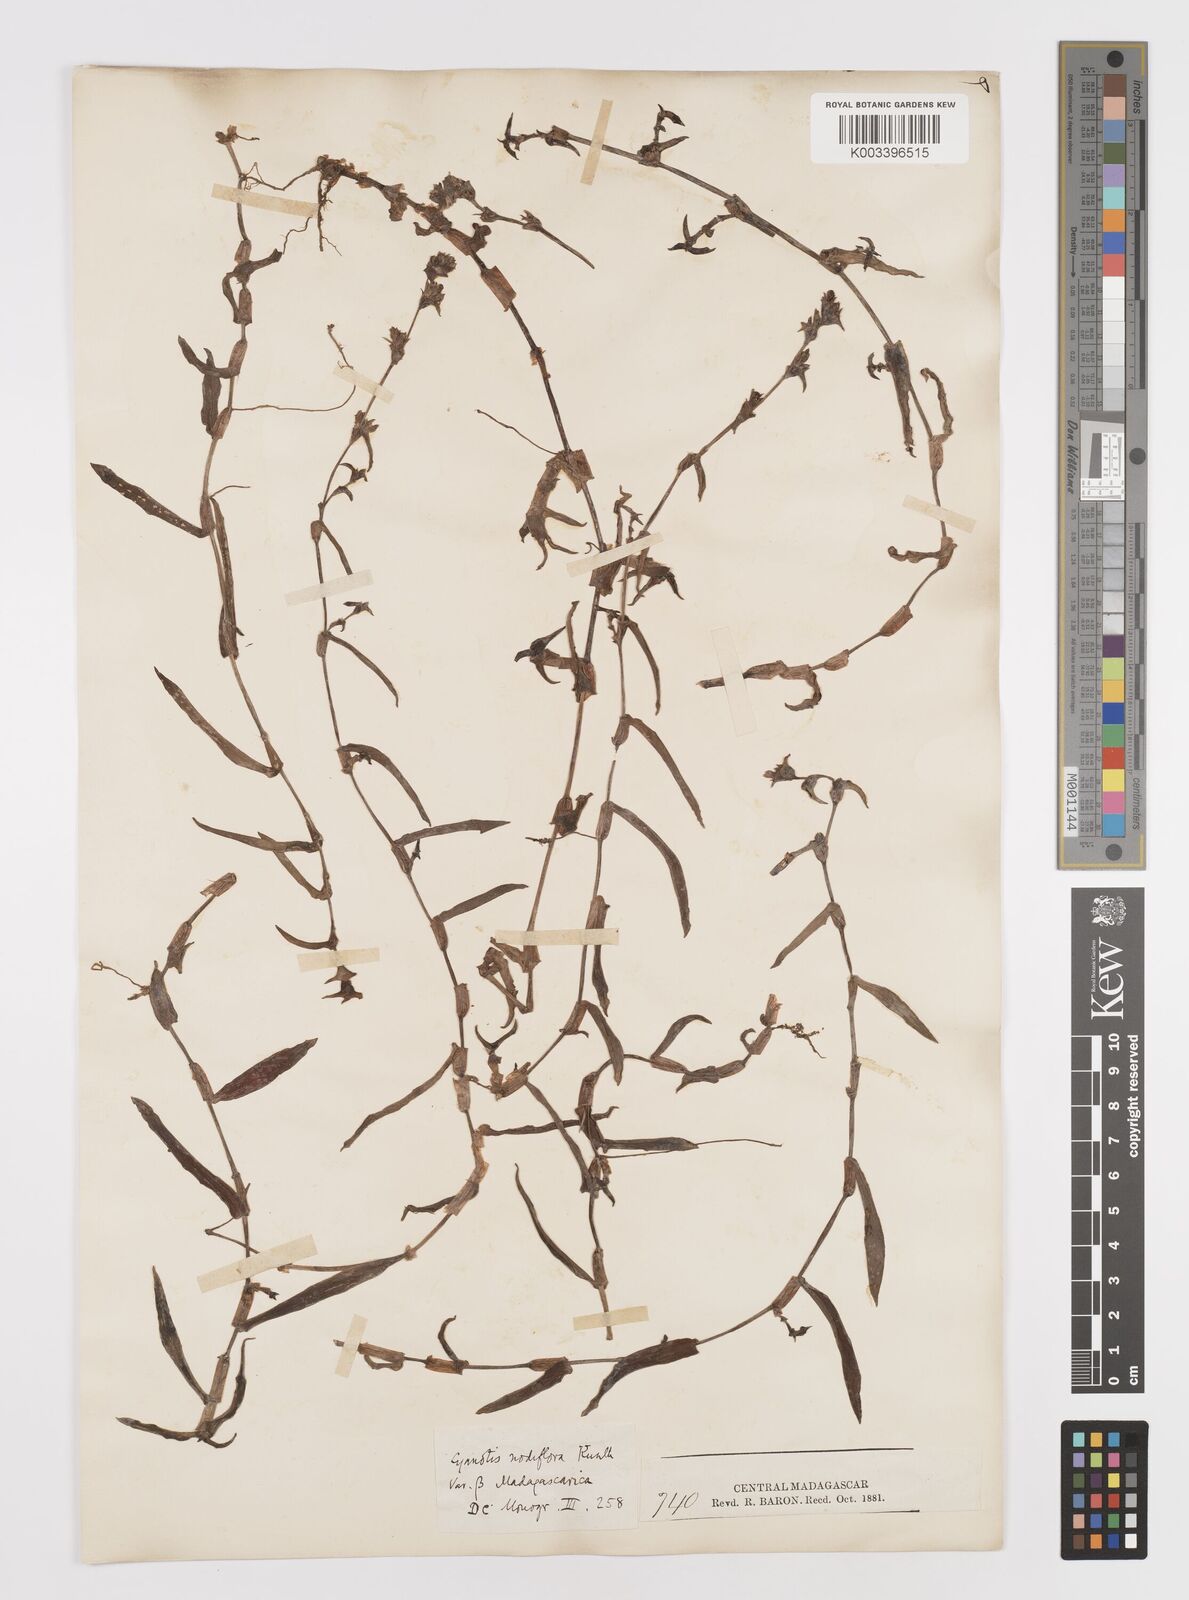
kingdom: Plantae
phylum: Tracheophyta
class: Liliopsida
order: Commelinales
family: Commelinaceae
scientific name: Commelinaceae
